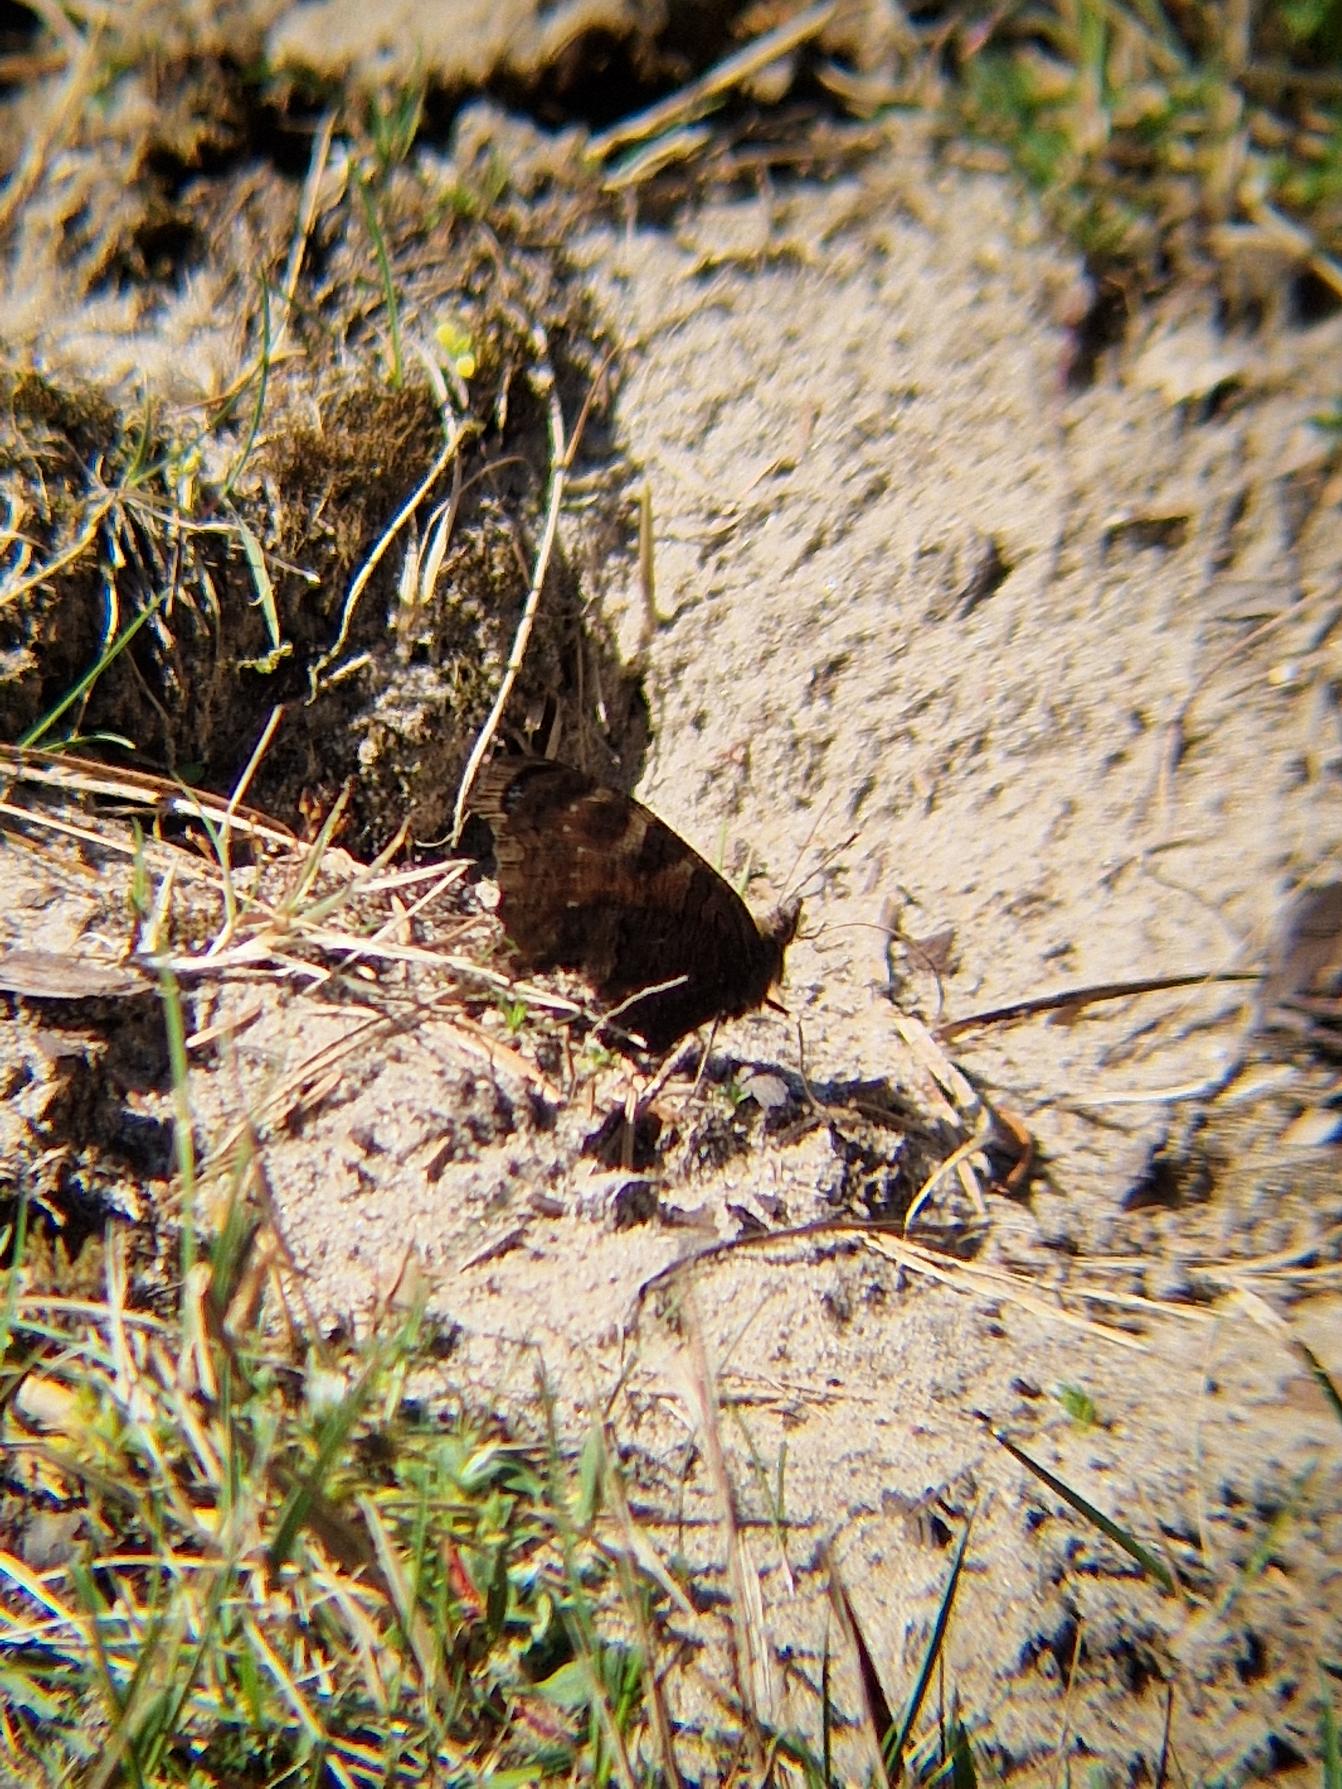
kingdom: Animalia
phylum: Arthropoda
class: Insecta
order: Lepidoptera
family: Nymphalidae
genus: Aglais
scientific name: Aglais io
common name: Dagpåfugleøje
